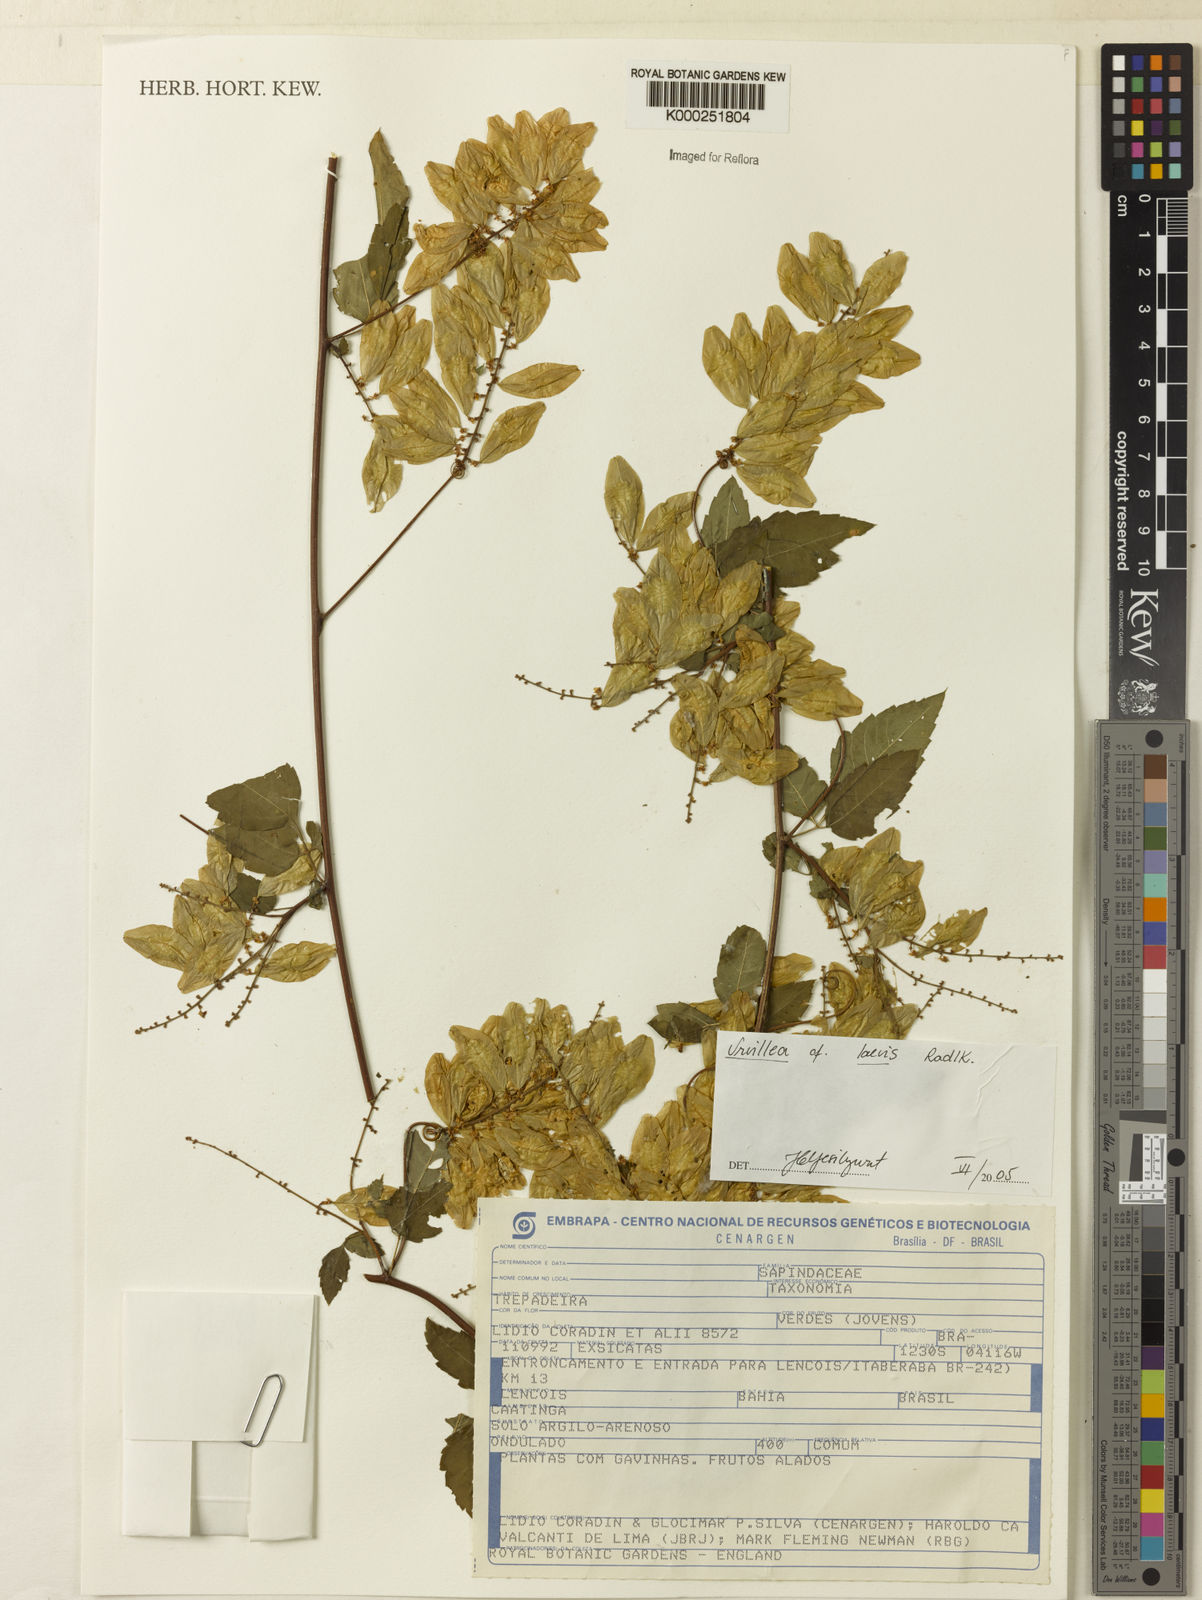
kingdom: Plantae
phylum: Tracheophyta
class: Magnoliopsida
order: Sapindales
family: Sapindaceae
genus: Urvillea
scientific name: Urvillea laevis
